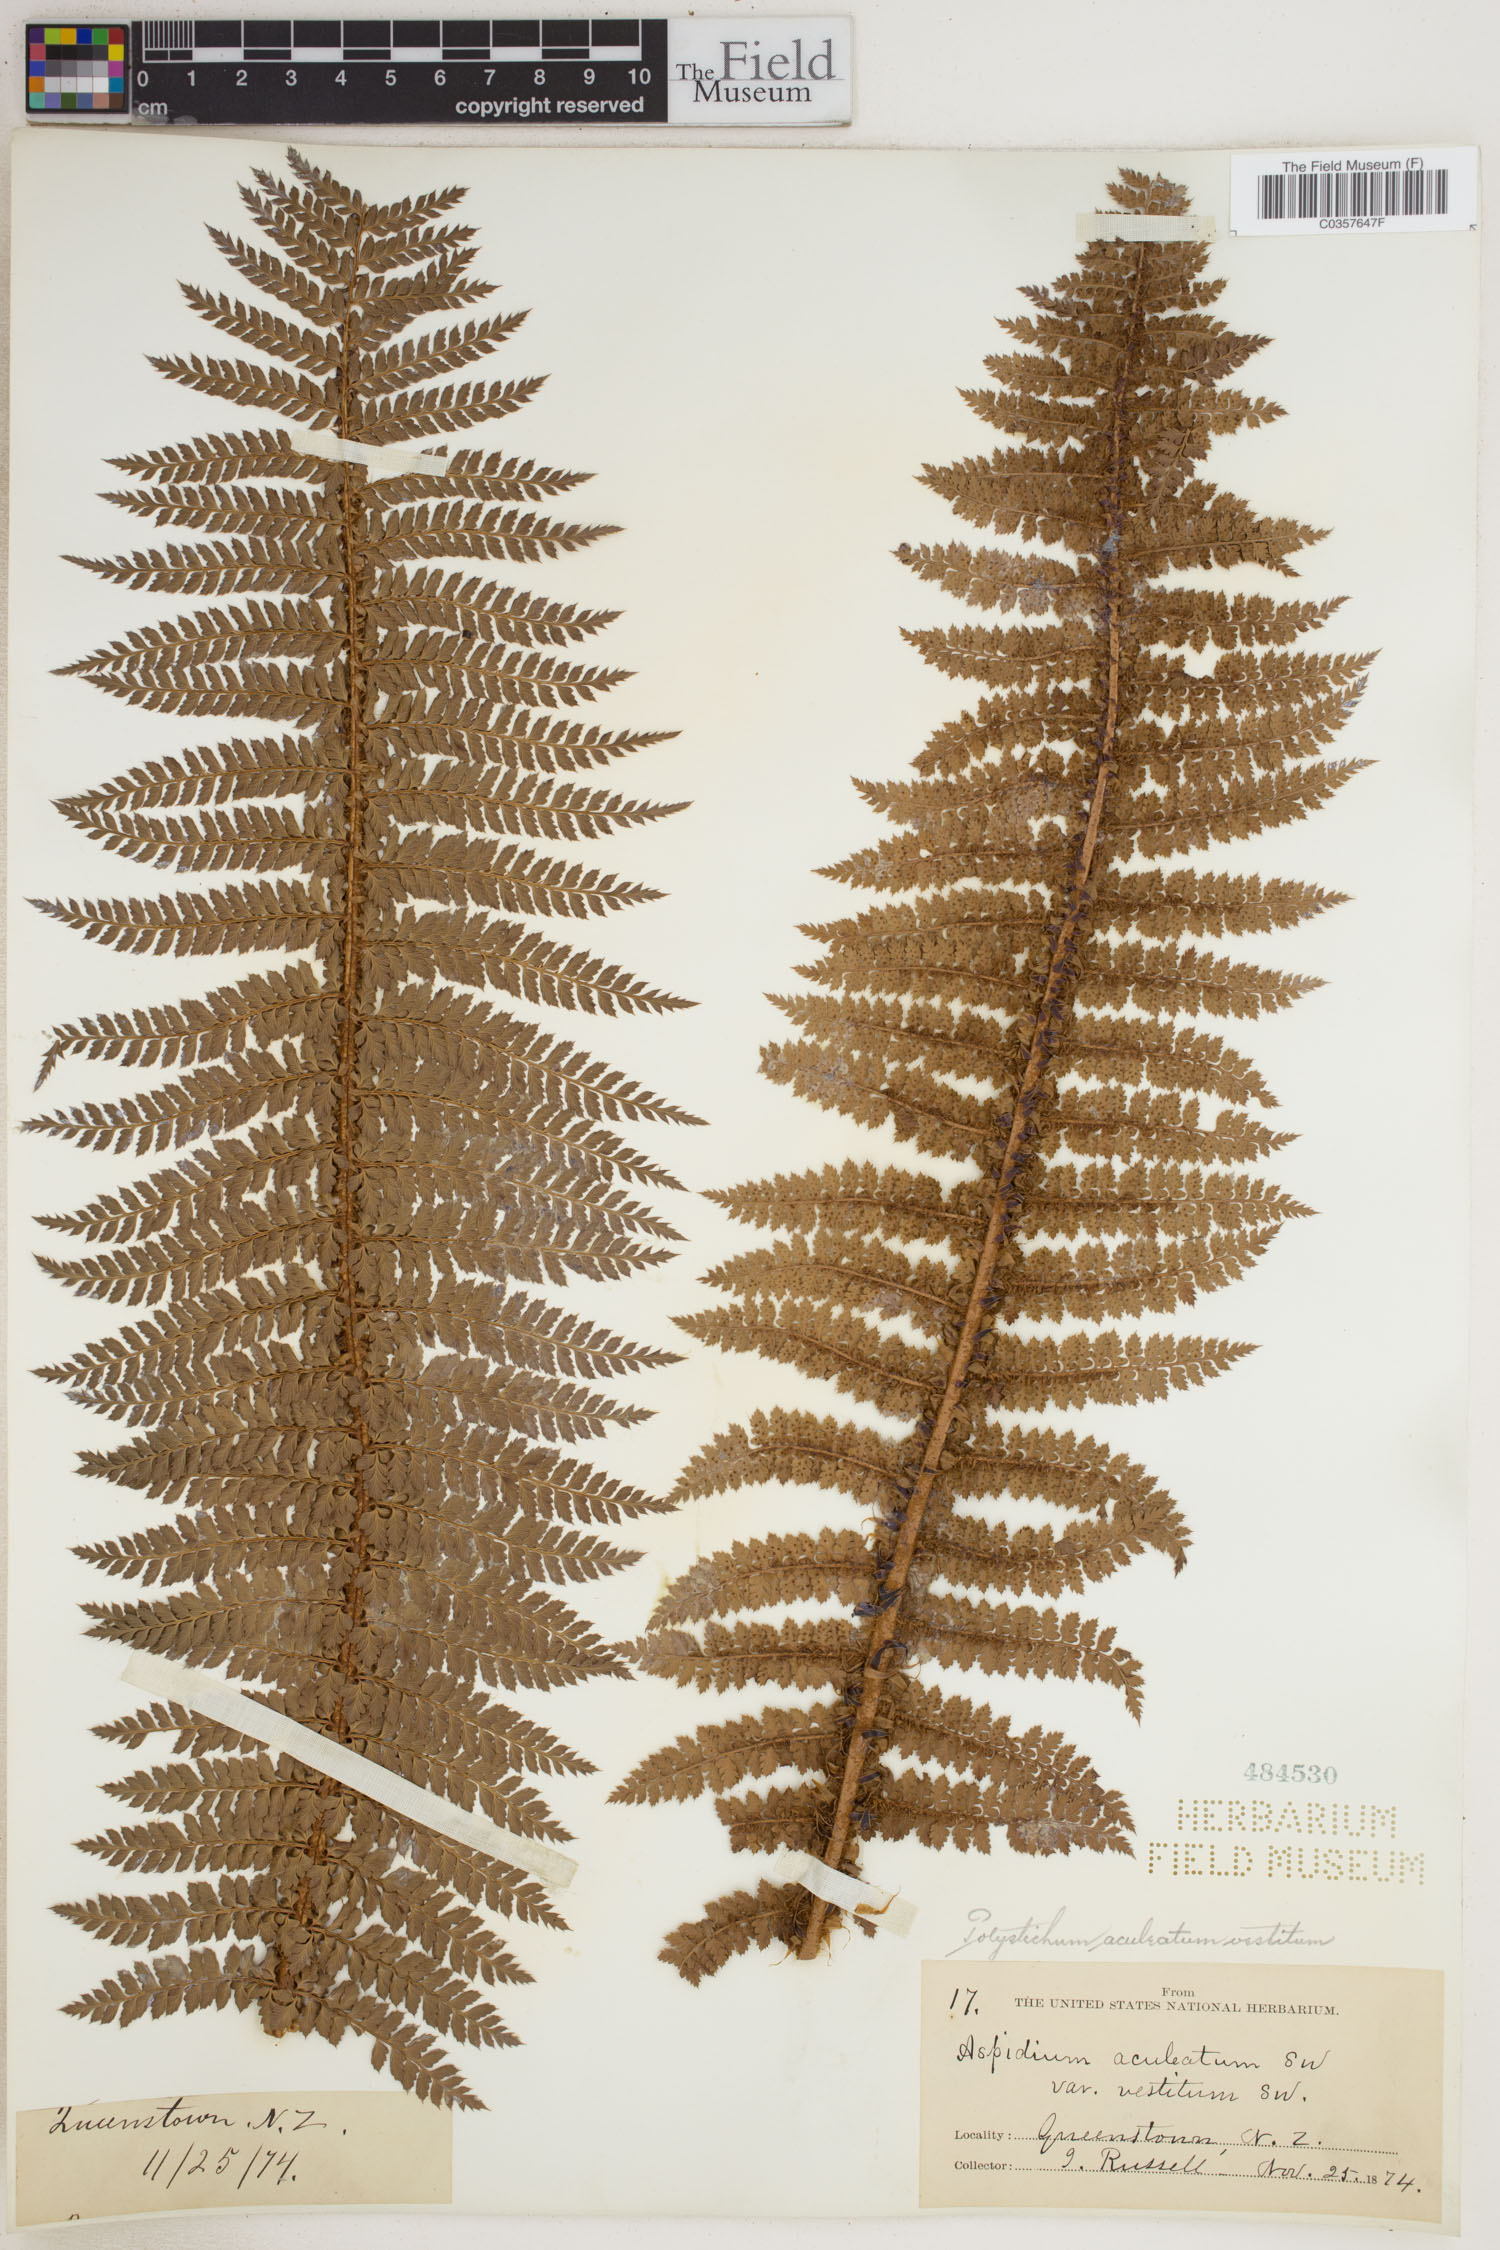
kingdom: Plantae
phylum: Tracheophyta
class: Polypodiopsida
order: Polypodiales
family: Dryopteridaceae
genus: Polystichum
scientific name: Polystichum aculeatum
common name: Hard shield-fern
